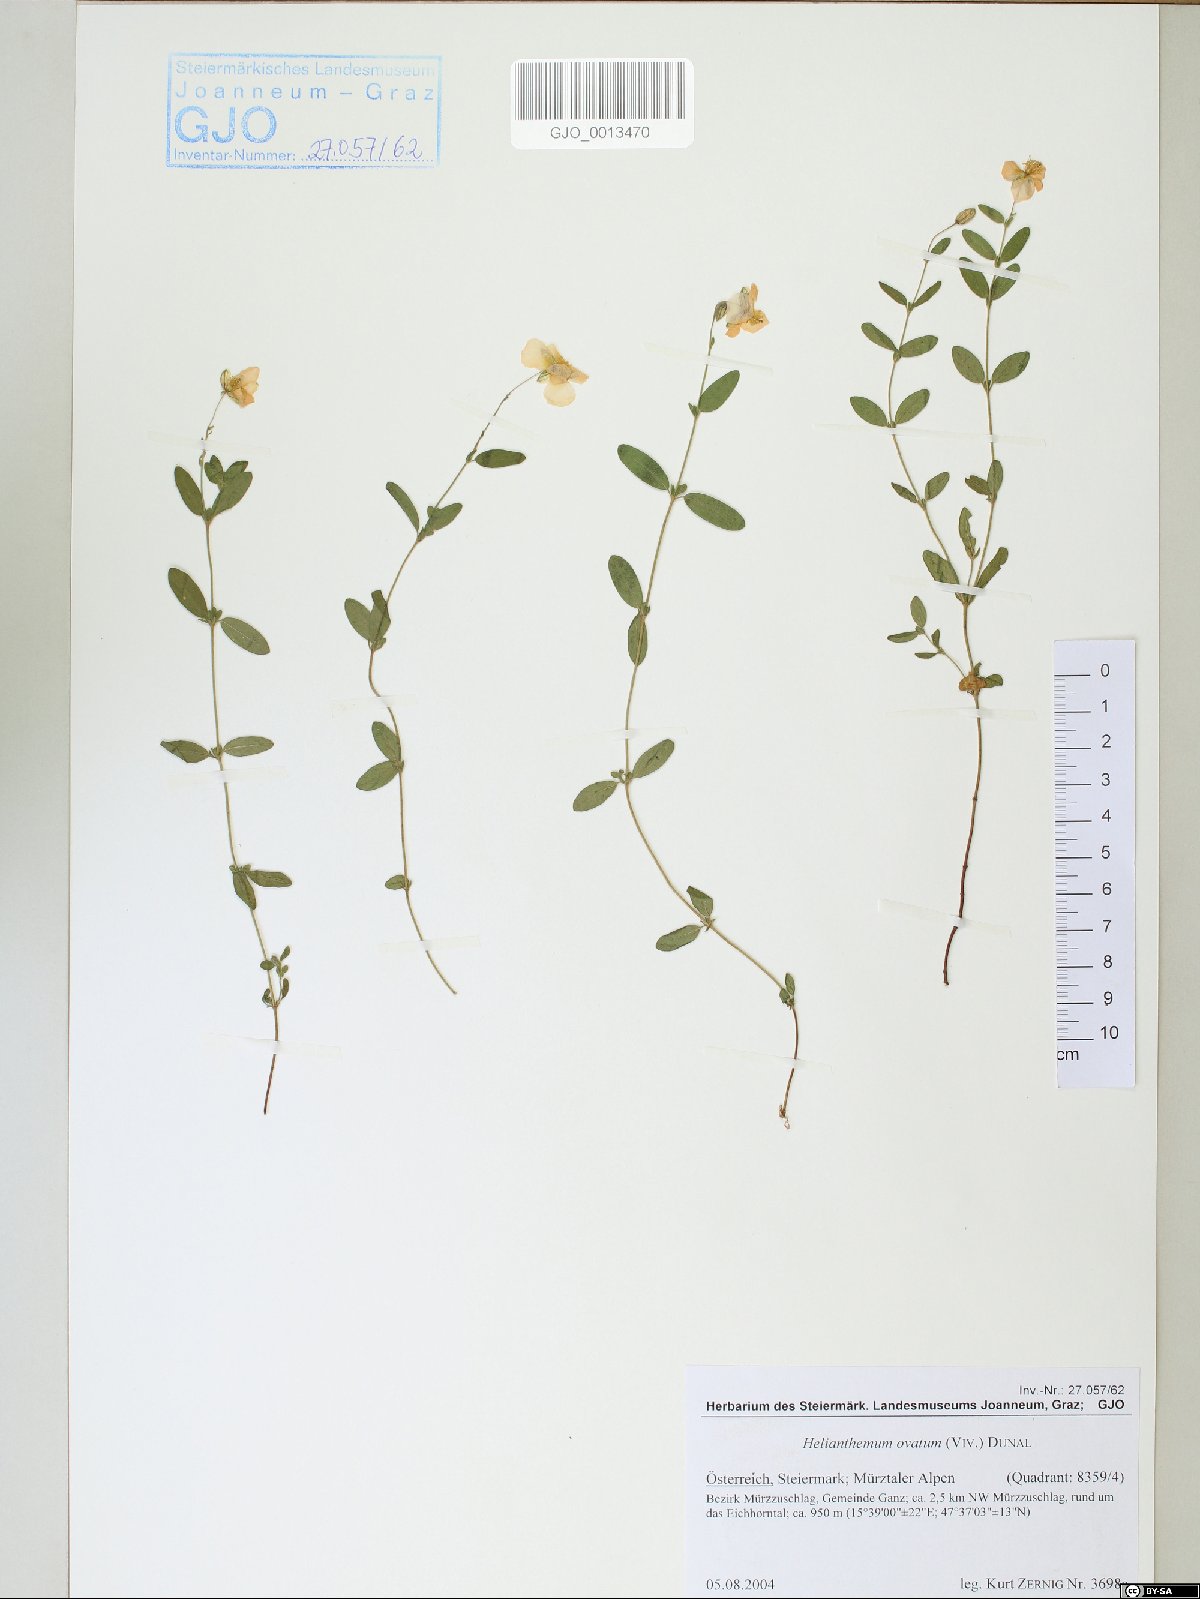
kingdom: Plantae
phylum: Tracheophyta
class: Magnoliopsida
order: Malvales
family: Cistaceae
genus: Helianthemum
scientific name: Helianthemum nummularium
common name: Common rock-rose
